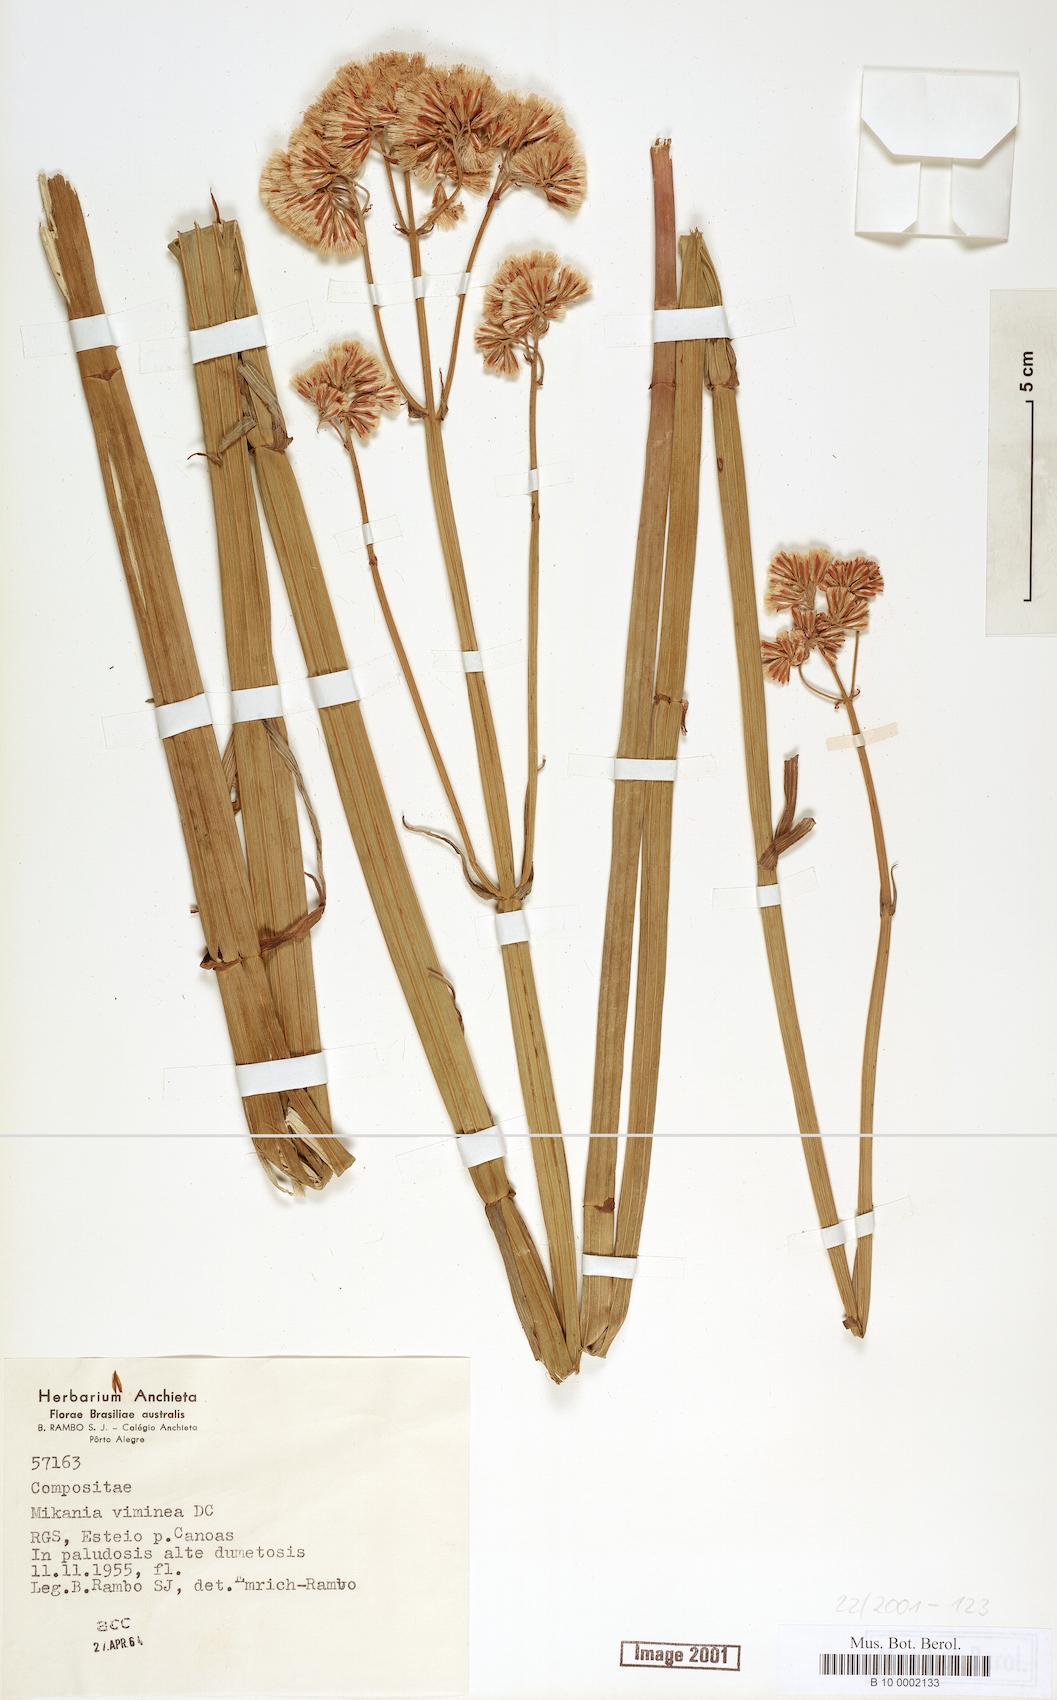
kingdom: Plantae
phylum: Tracheophyta
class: Magnoliopsida
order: Asterales
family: Asteraceae
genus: Mikania
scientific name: Mikania viminea
